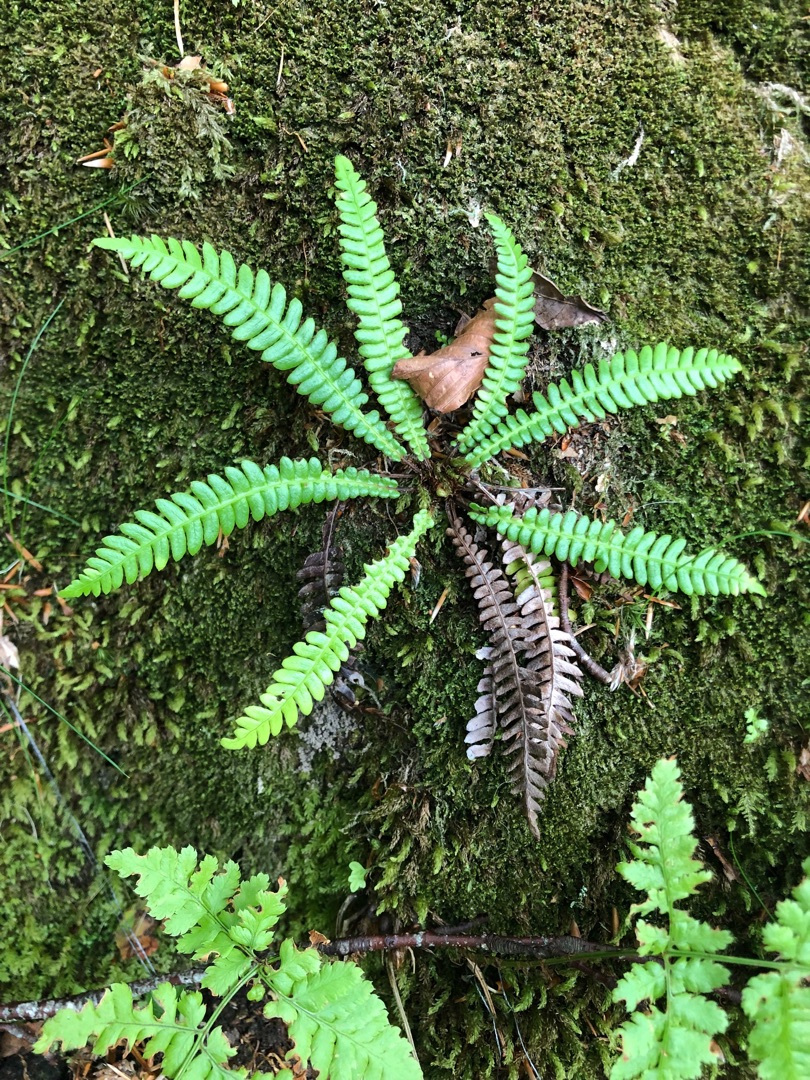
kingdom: Plantae
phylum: Tracheophyta
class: Polypodiopsida
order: Polypodiales
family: Blechnaceae
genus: Struthiopteris
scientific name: Struthiopteris spicant
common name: Kambregne
